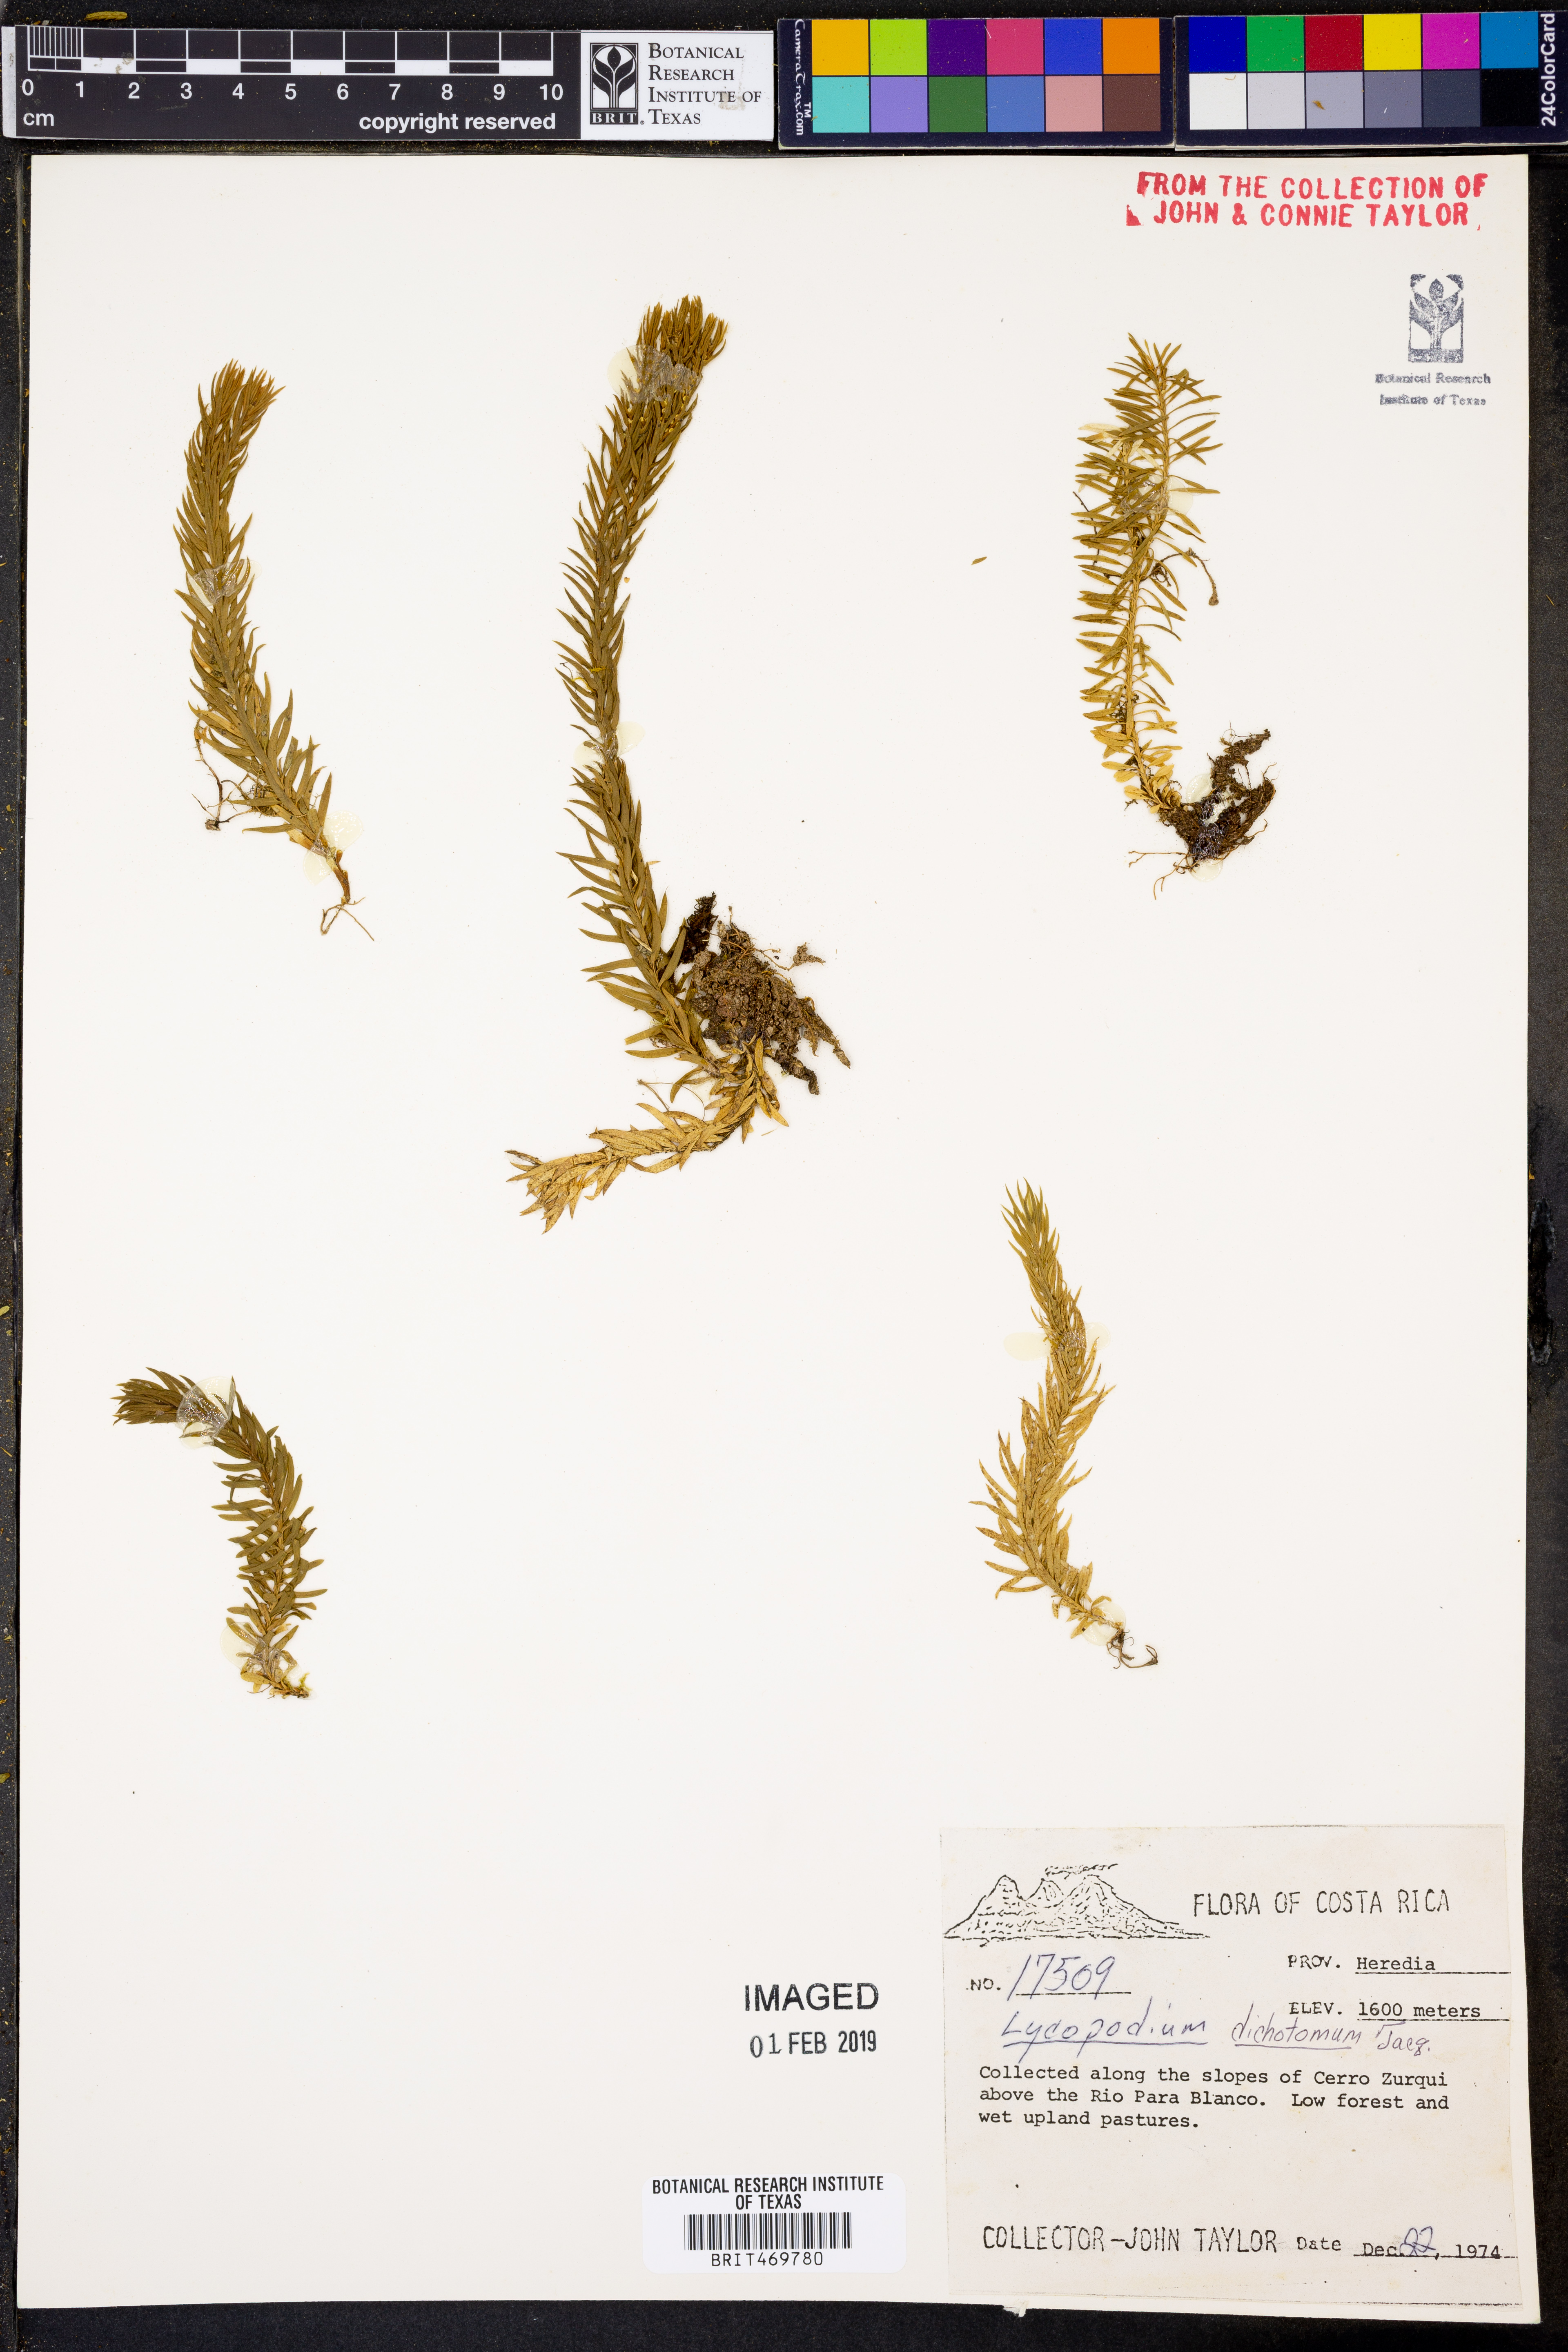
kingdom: Plantae
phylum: Tracheophyta
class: Lycopodiopsida
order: Lycopodiales
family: Lycopodiaceae
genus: Phlegmariurus
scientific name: Phlegmariurus dichotomus
